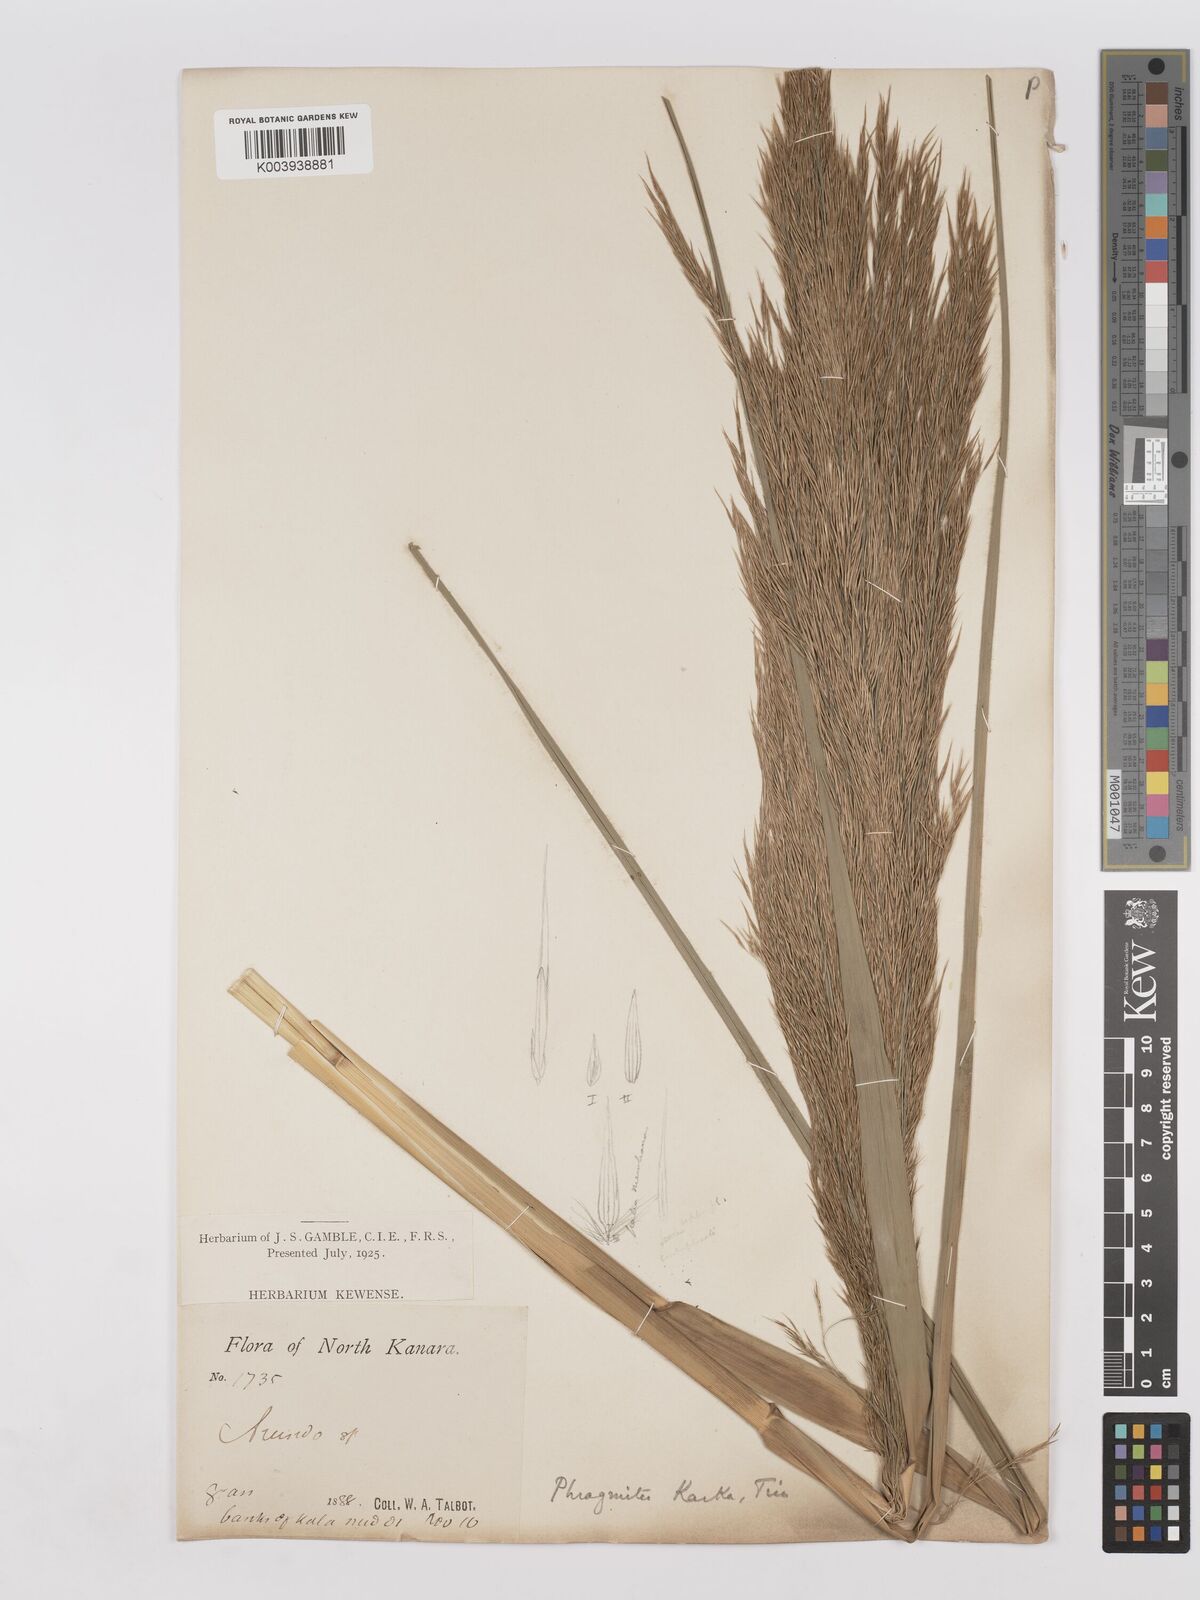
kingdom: Plantae
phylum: Tracheophyta
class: Liliopsida
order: Poales
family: Poaceae
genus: Phragmites
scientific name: Phragmites karka
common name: Tropical reed
